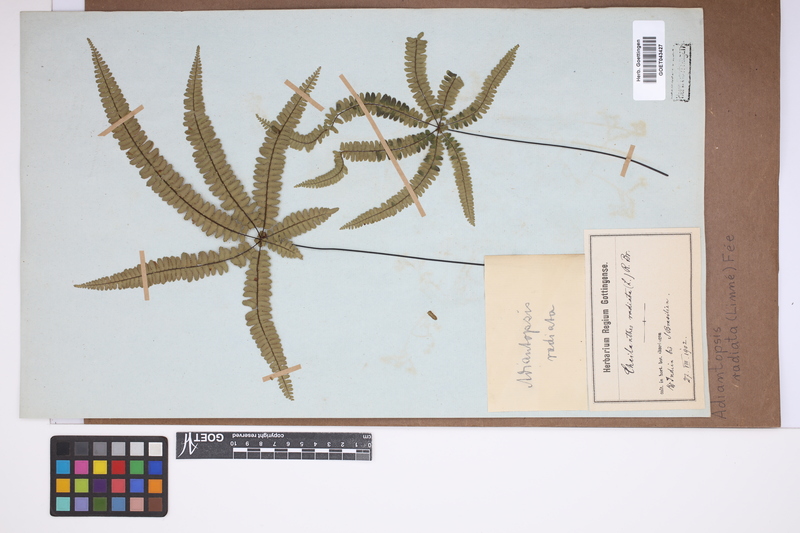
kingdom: Plantae
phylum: Tracheophyta
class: Polypodiopsida
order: Polypodiales
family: Pteridaceae
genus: Adiantopsis
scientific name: Adiantopsis radiata
